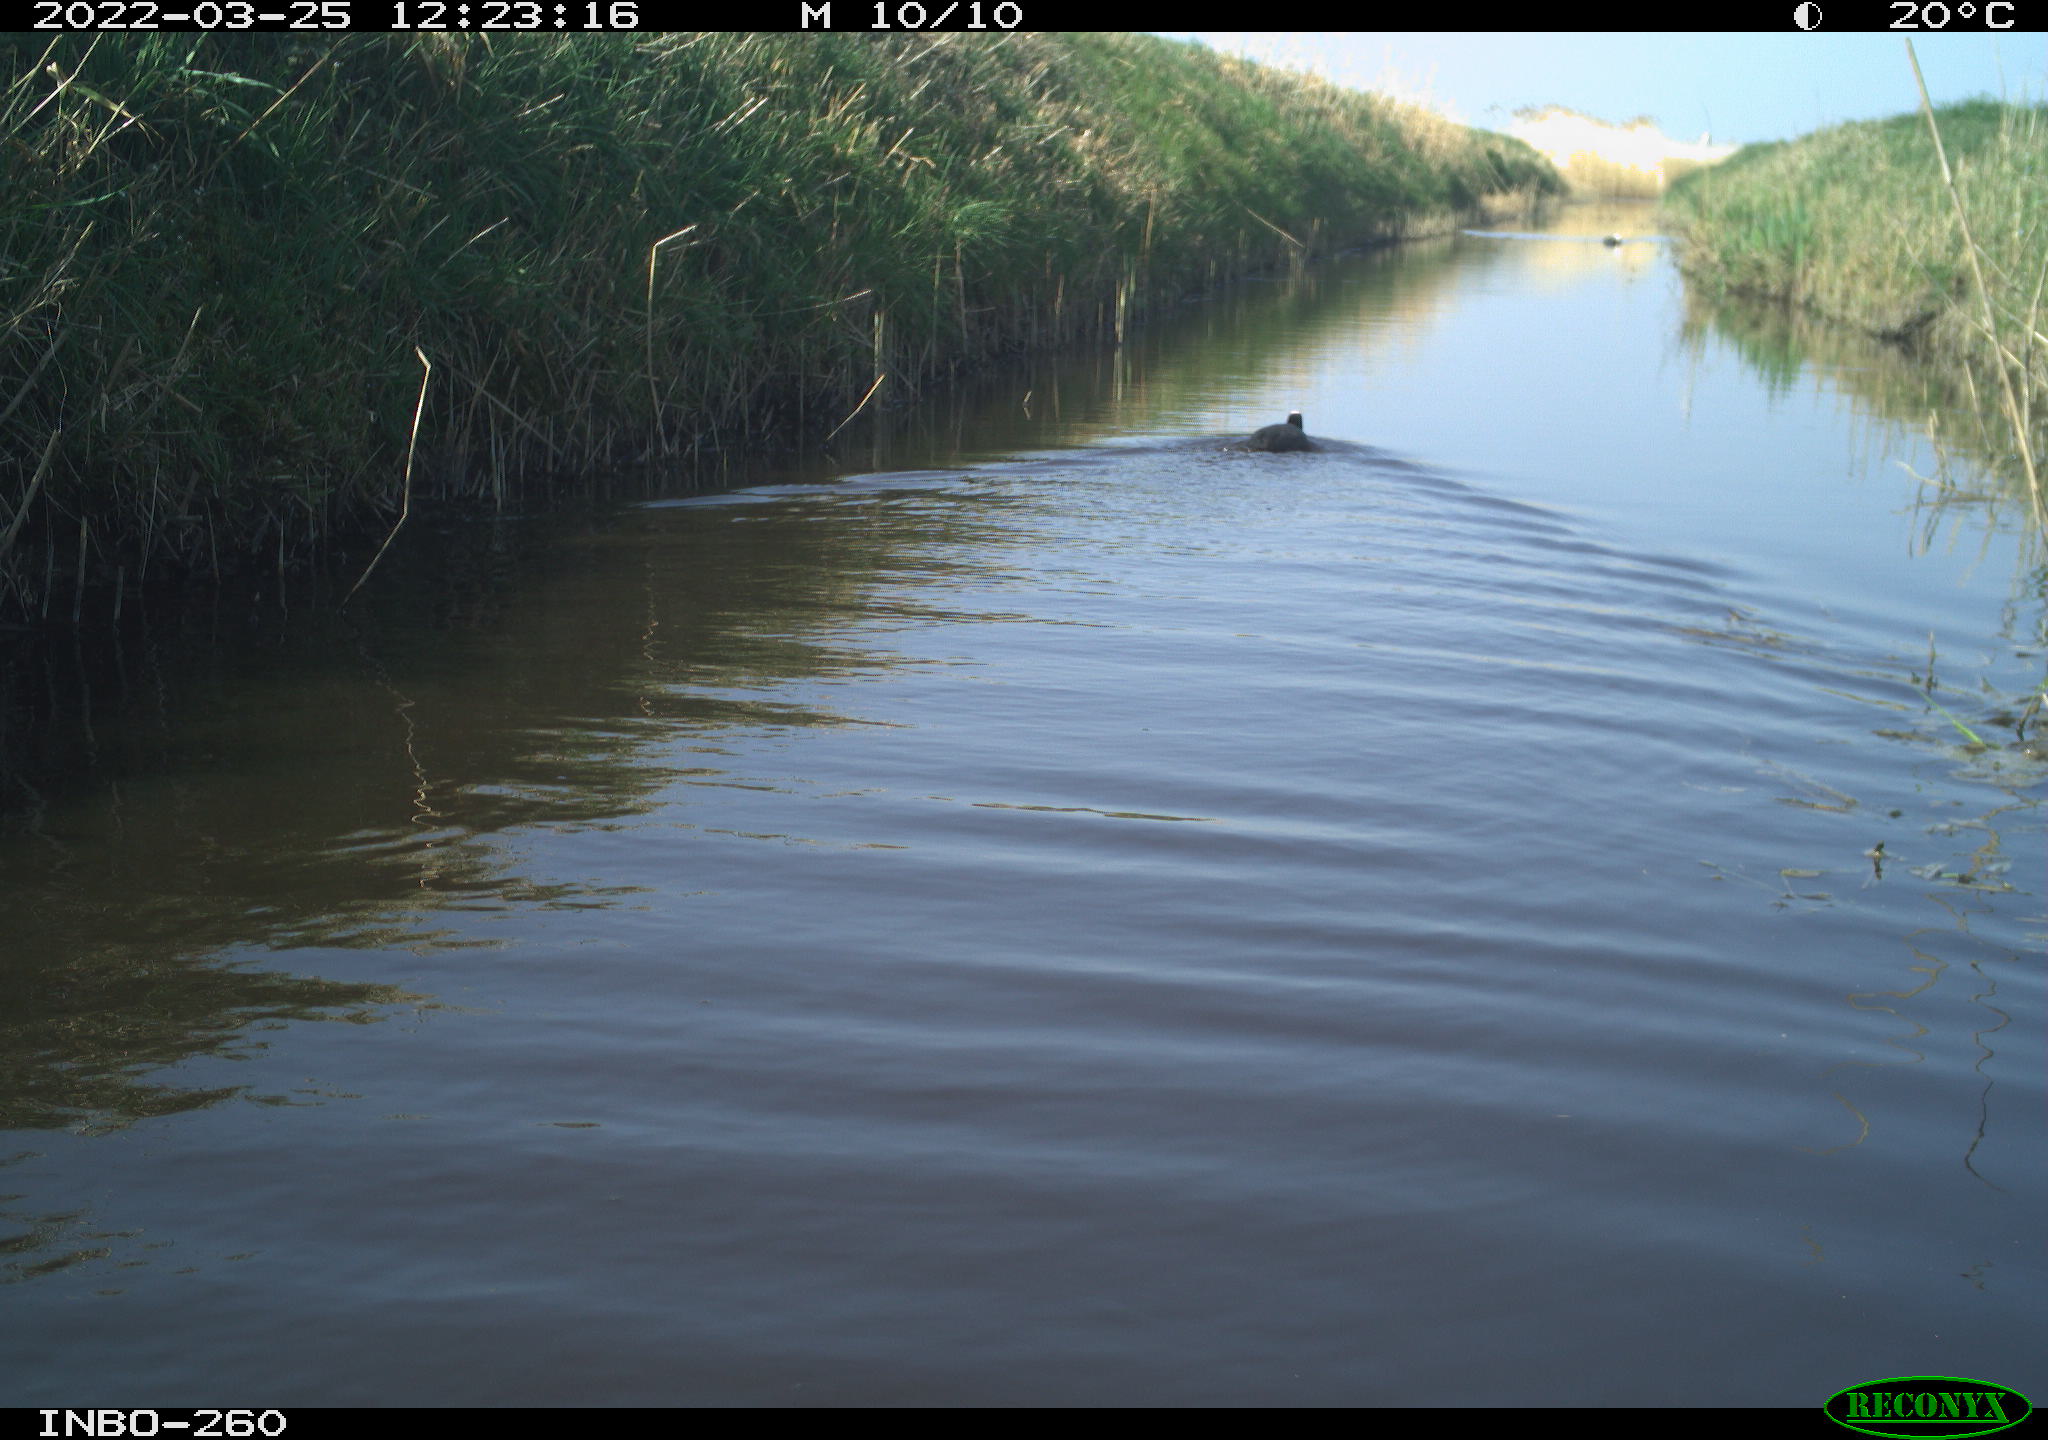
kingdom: Animalia
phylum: Chordata
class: Aves
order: Gruiformes
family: Rallidae
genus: Fulica
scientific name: Fulica atra
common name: Eurasian coot
